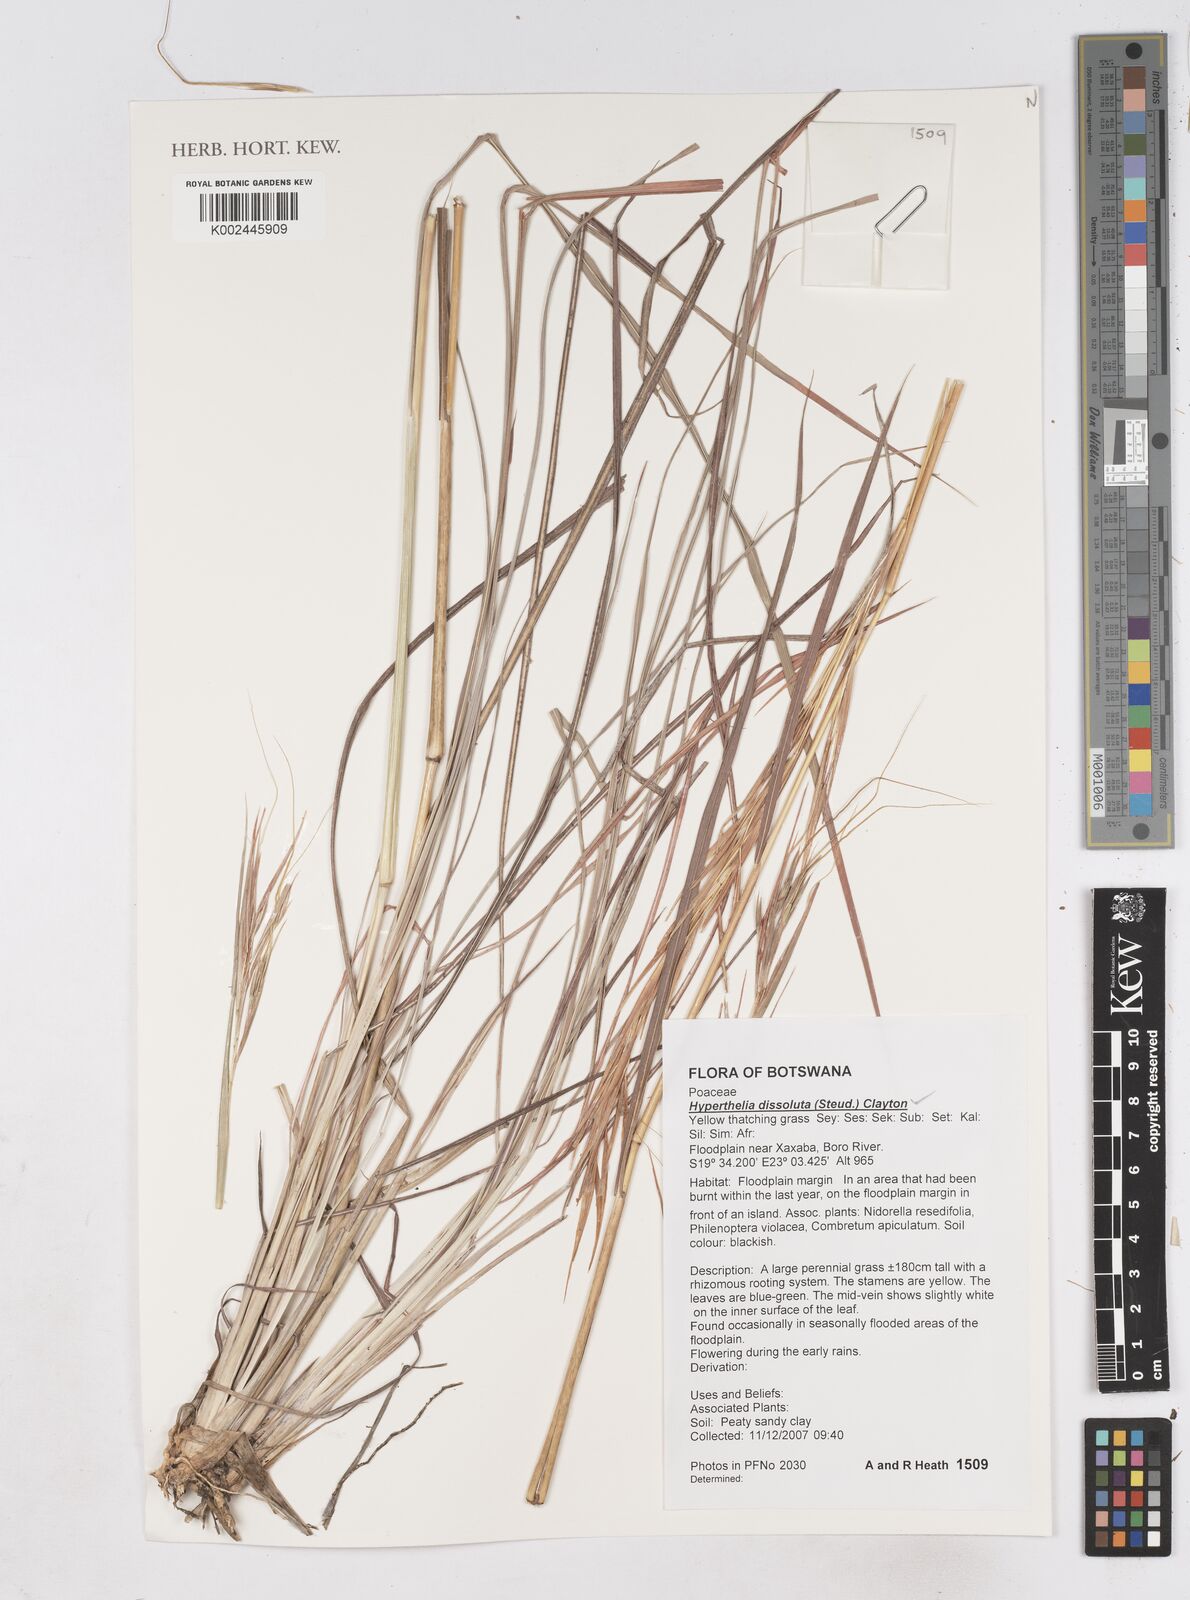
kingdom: Plantae
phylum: Tracheophyta
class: Liliopsida
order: Poales
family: Poaceae
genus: Hyperthelia
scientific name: Hyperthelia dissoluta
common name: Yellow thatching grass
